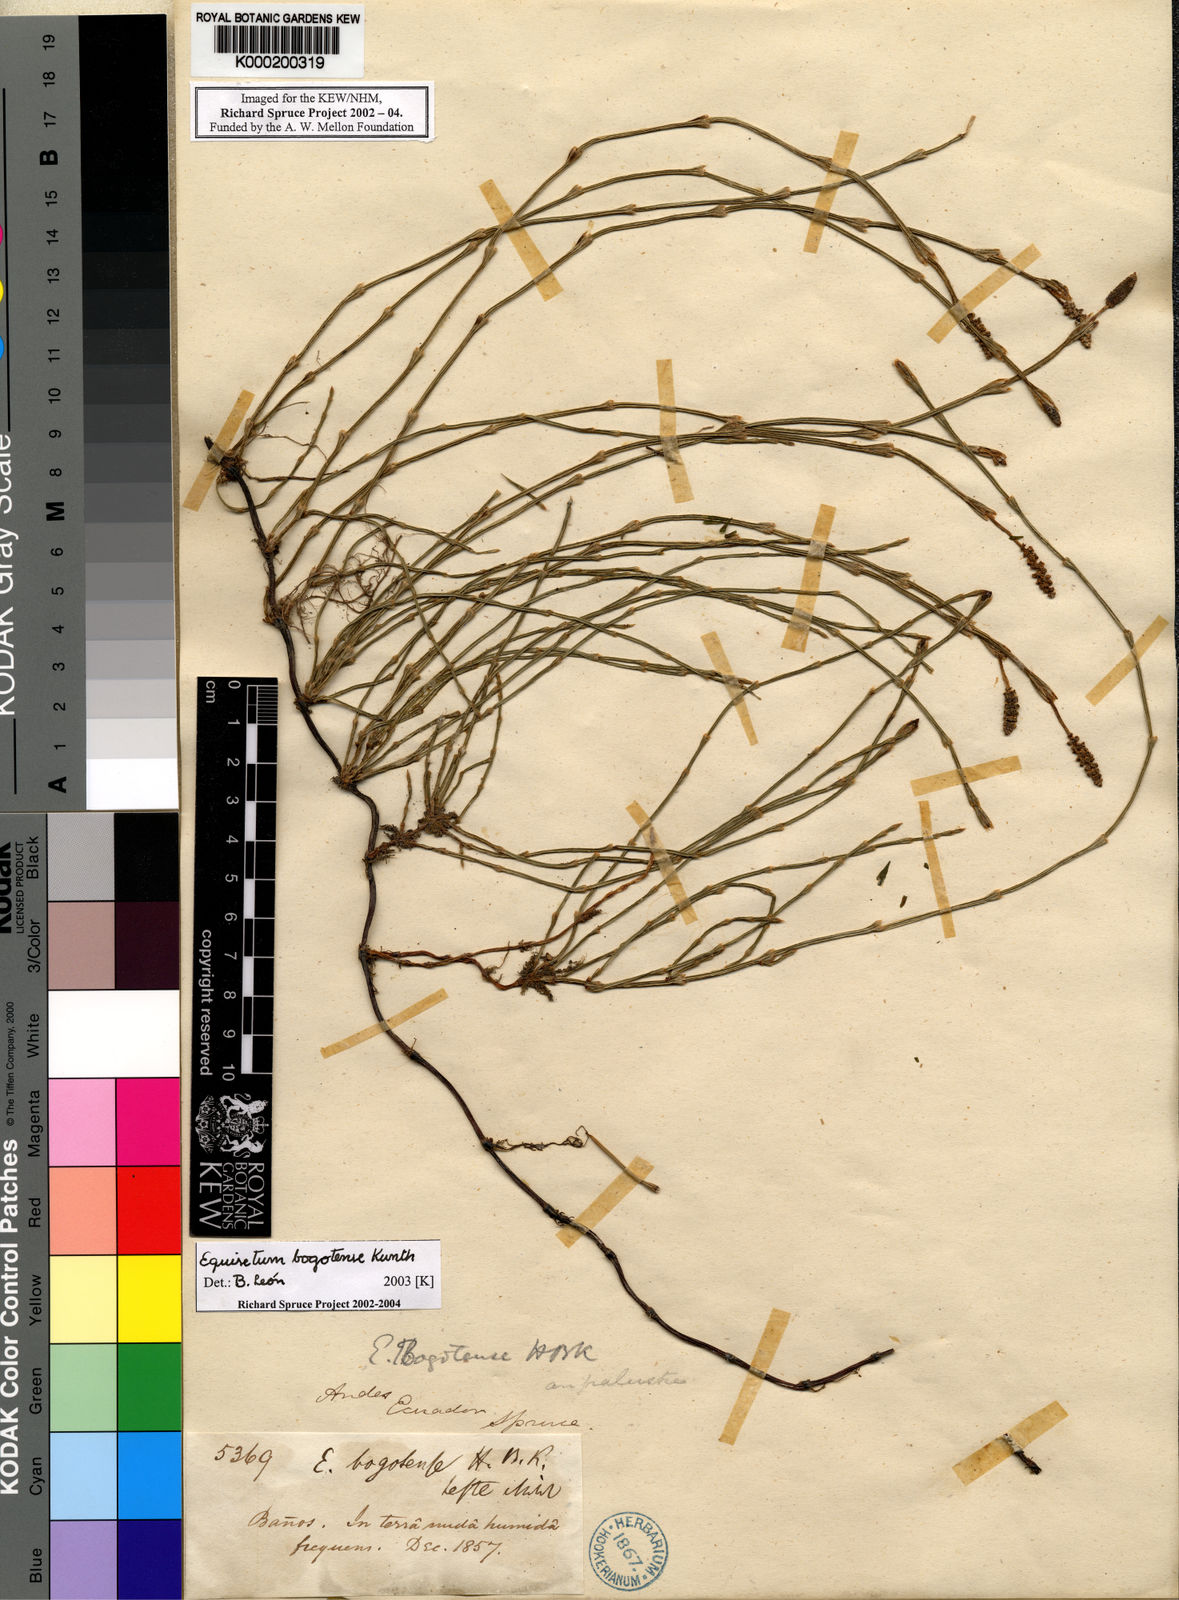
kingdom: Plantae
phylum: Tracheophyta
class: Polypodiopsida
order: Equisetales
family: Equisetaceae
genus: Equisetum
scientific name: Equisetum bogotense
